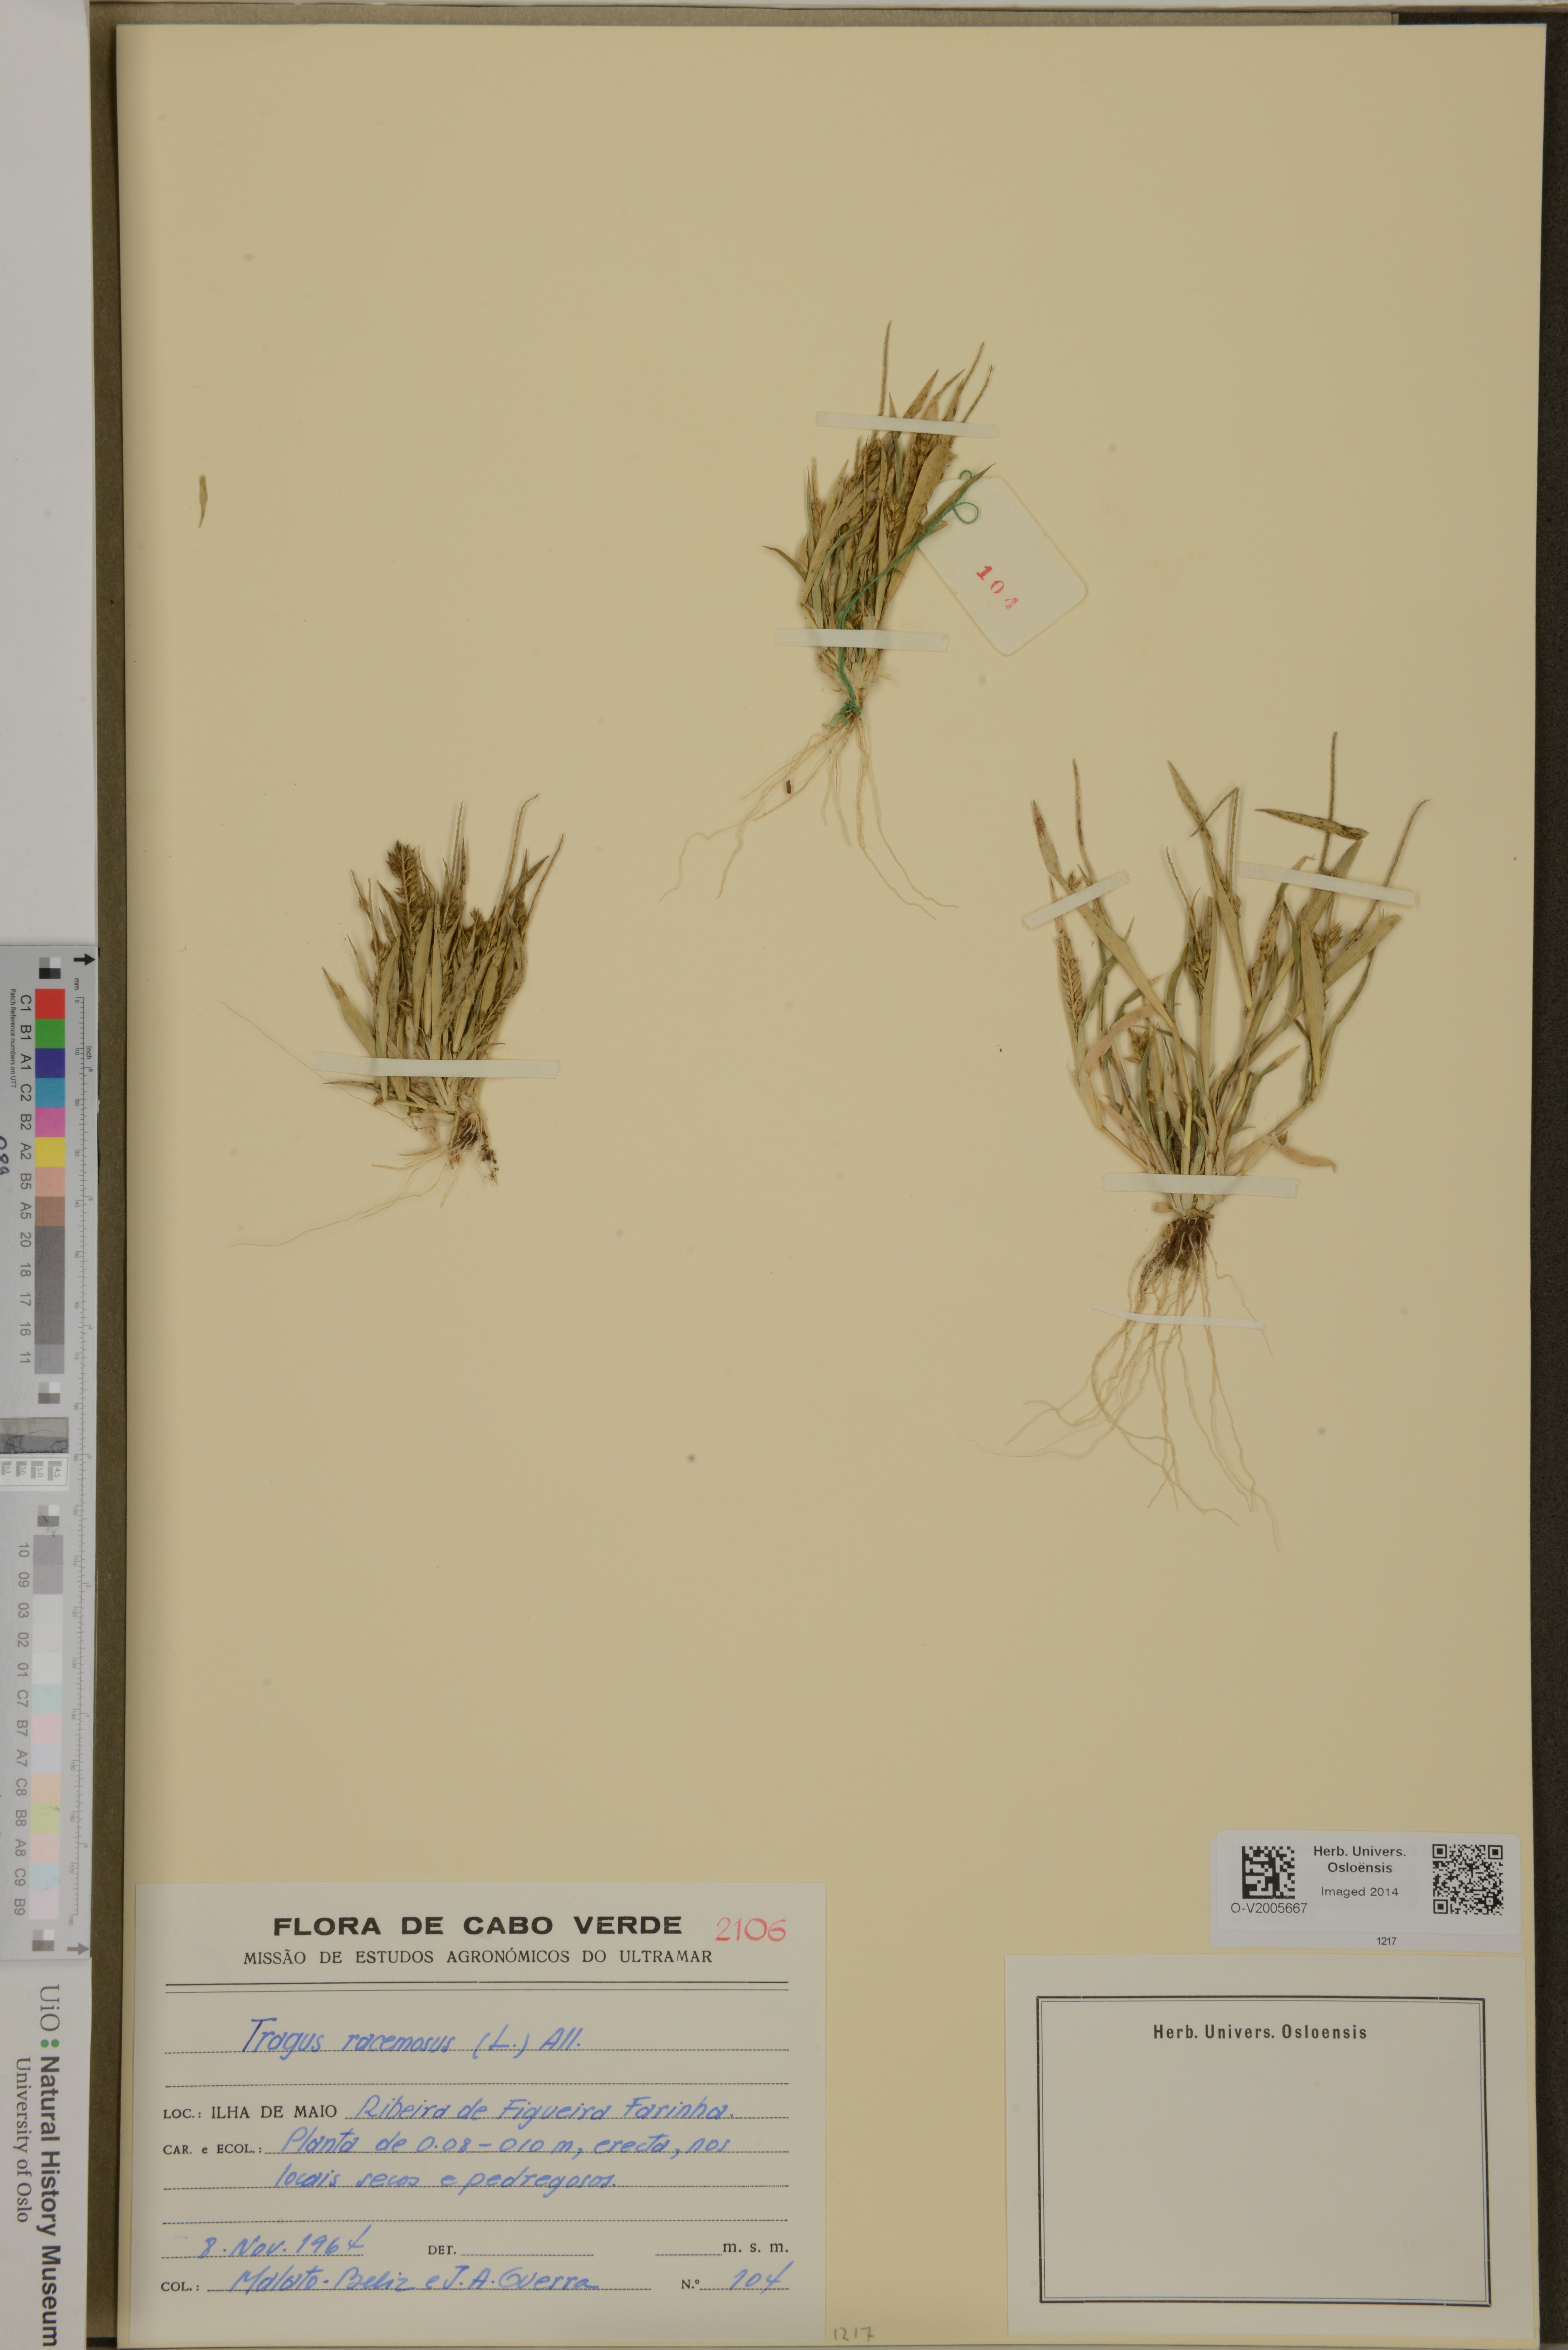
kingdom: Plantae
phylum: Tracheophyta
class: Liliopsida
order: Poales
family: Poaceae
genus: Tragus
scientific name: Tragus racemosus
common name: European bur-grass
